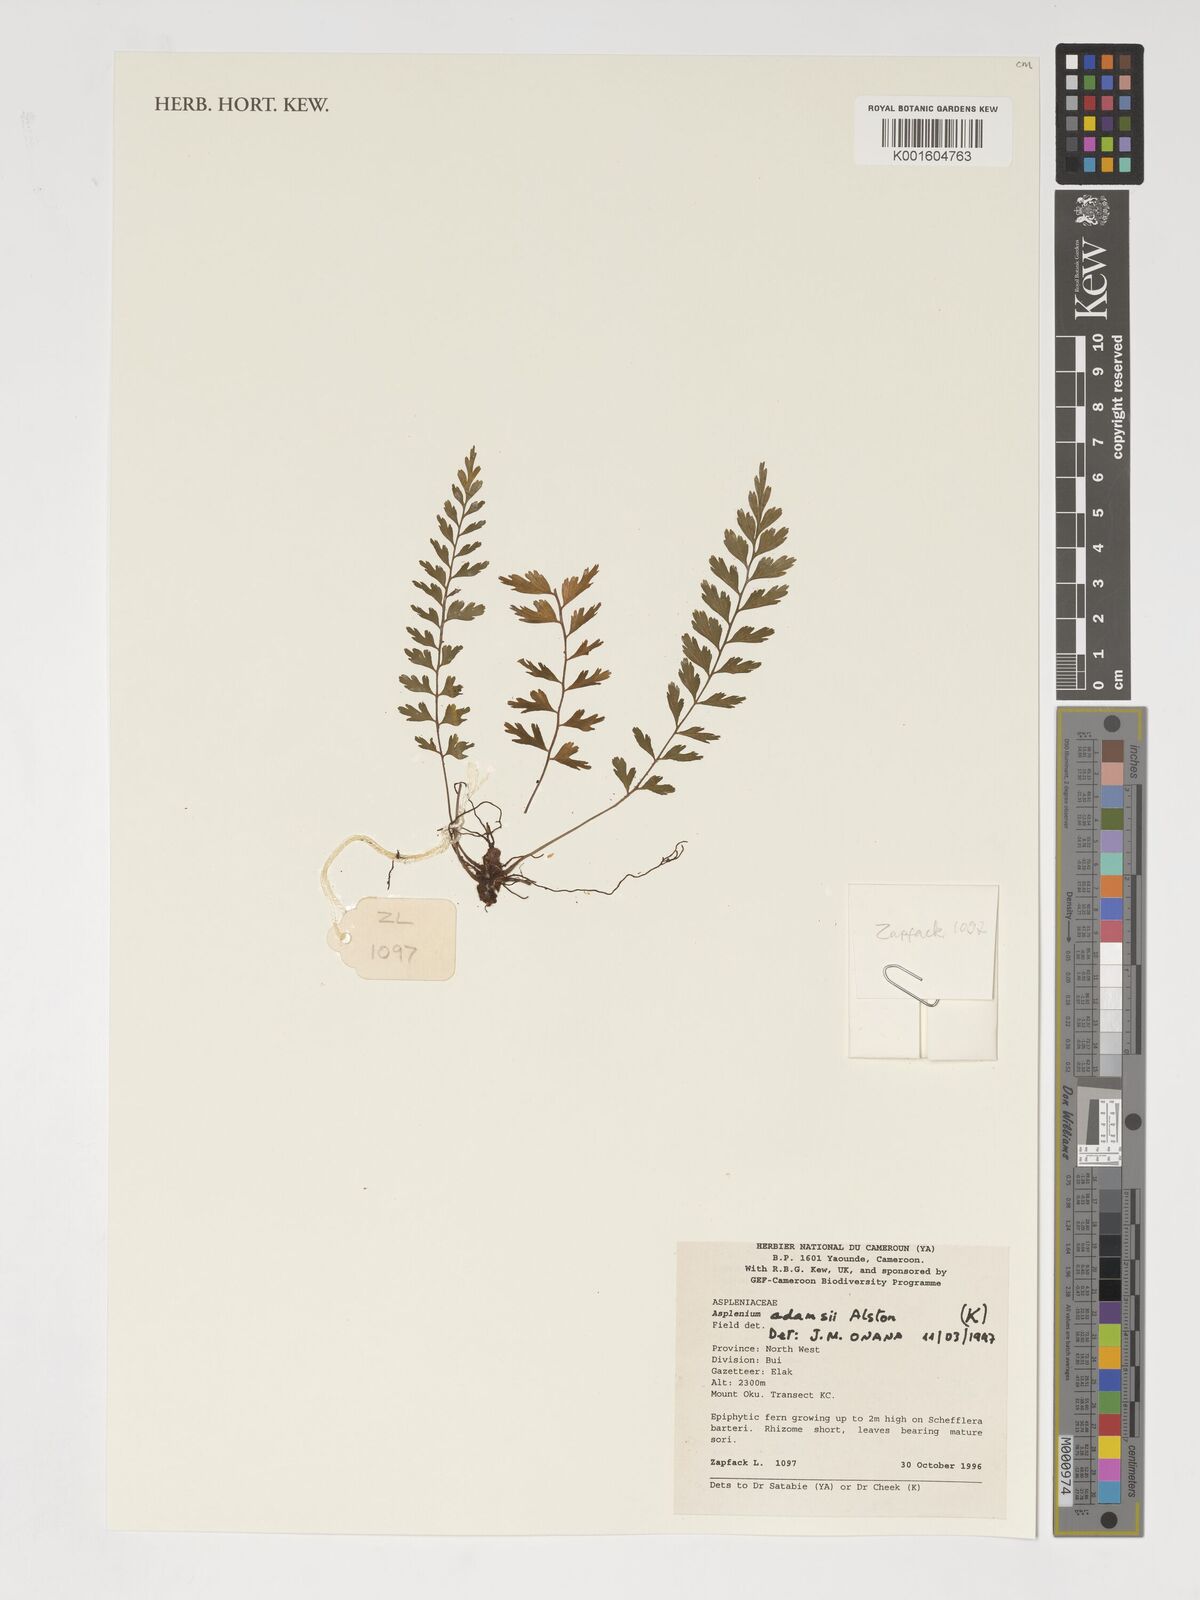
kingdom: Plantae
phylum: Tracheophyta
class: Polypodiopsida
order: Polypodiales
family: Aspleniaceae
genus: Asplenium
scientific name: Asplenium adamsii
